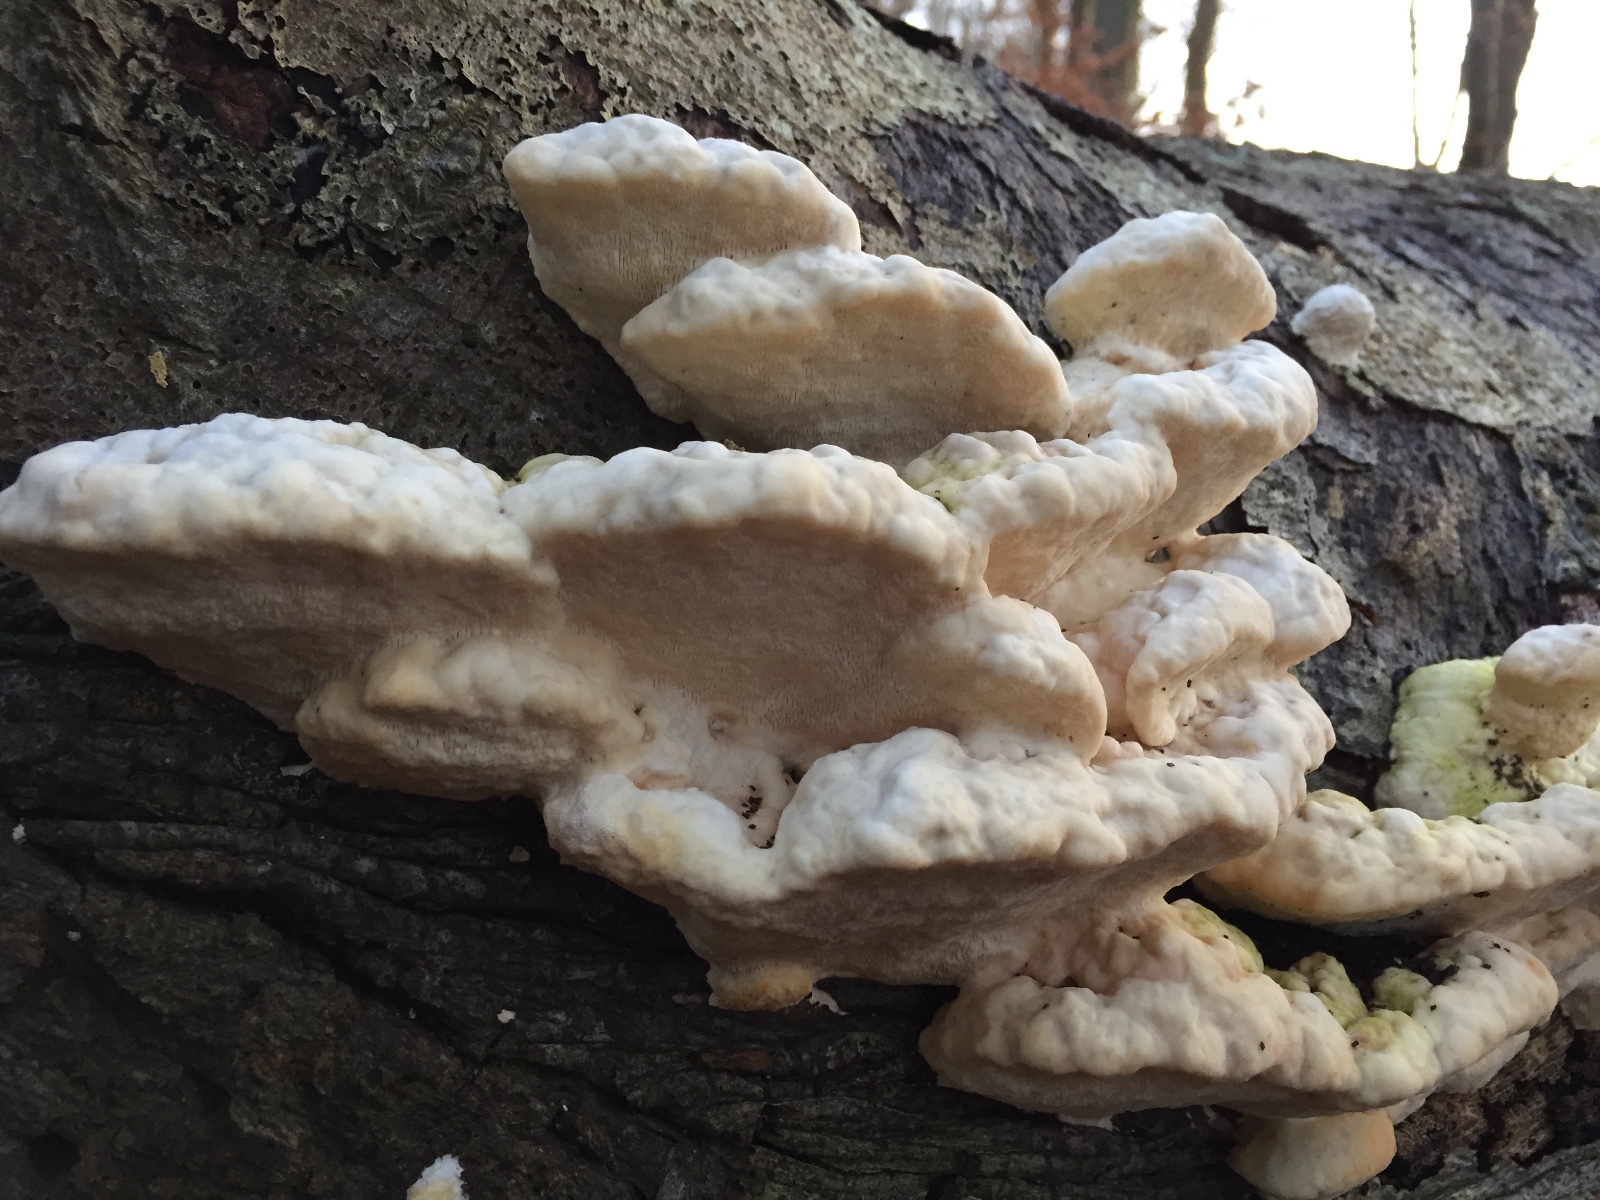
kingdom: Fungi
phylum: Basidiomycota
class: Agaricomycetes
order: Polyporales
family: Polyporaceae
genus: Trametes
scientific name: Trametes gibbosa
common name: puklet læderporesvamp
